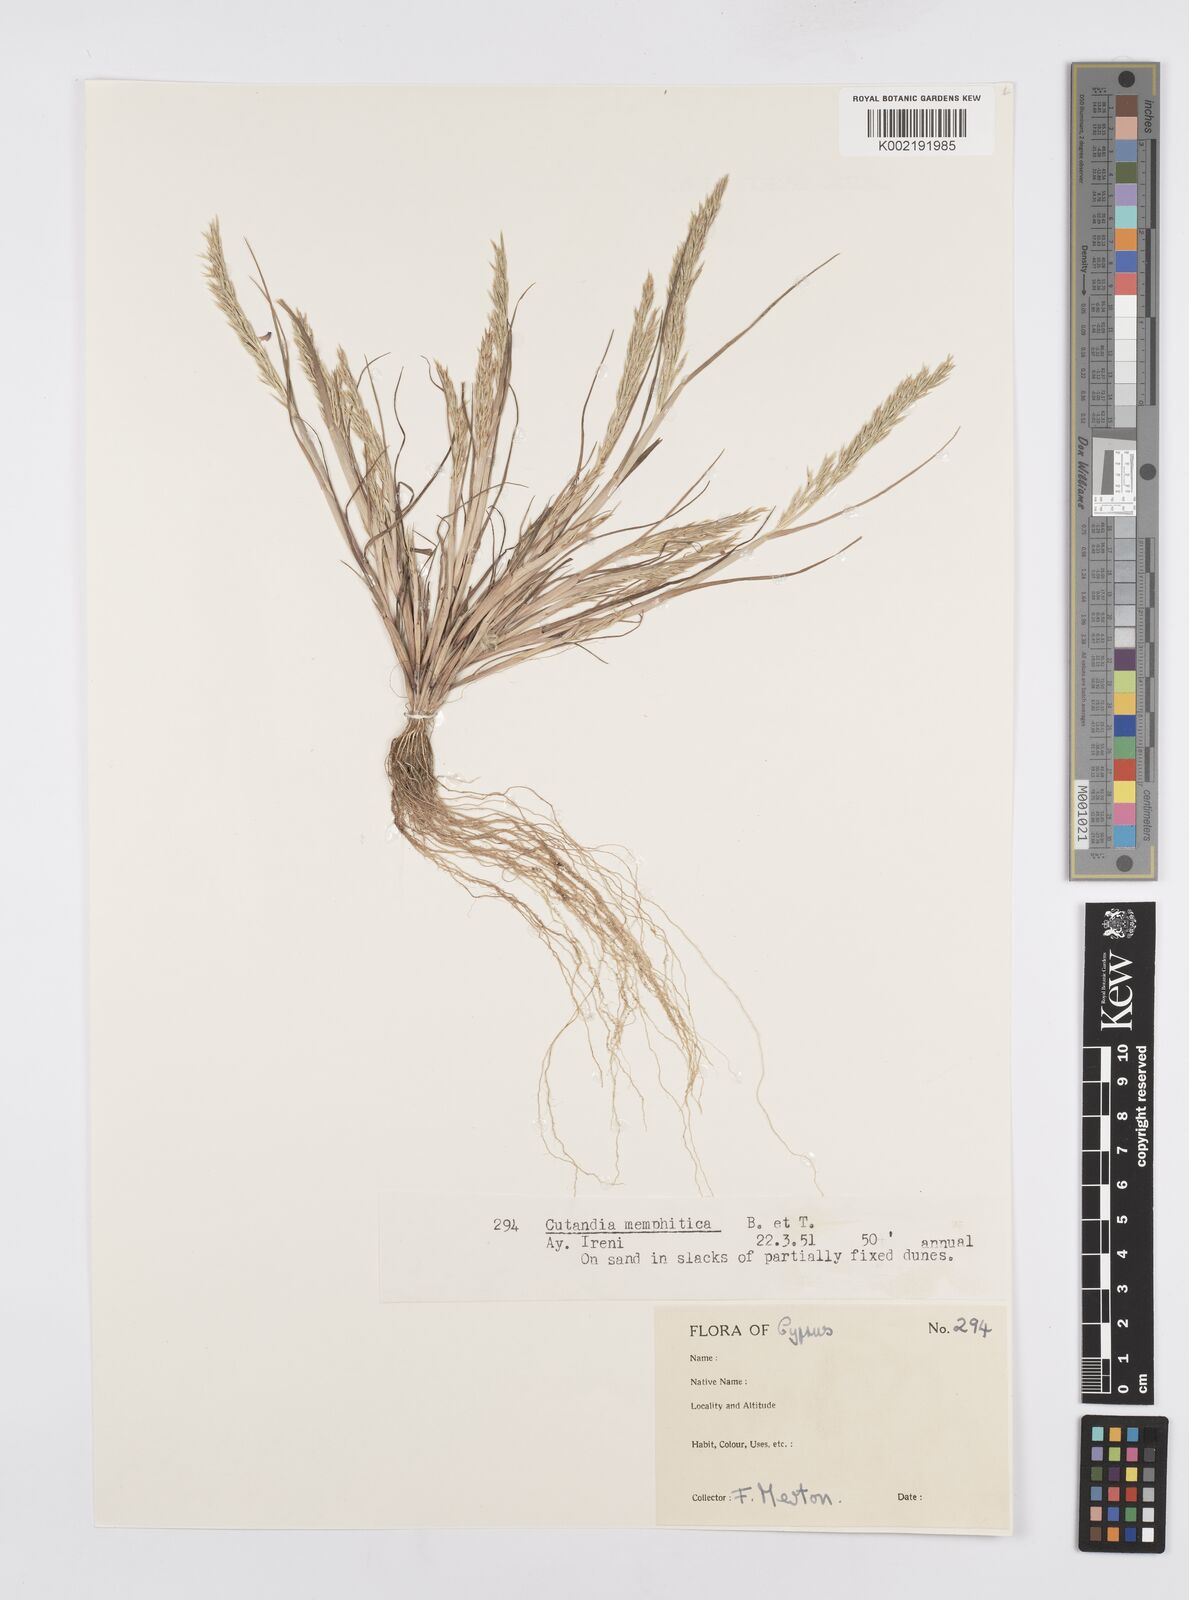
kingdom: Plantae
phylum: Tracheophyta
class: Liliopsida
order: Poales
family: Poaceae
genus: Cutandia
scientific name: Cutandia memphitica
